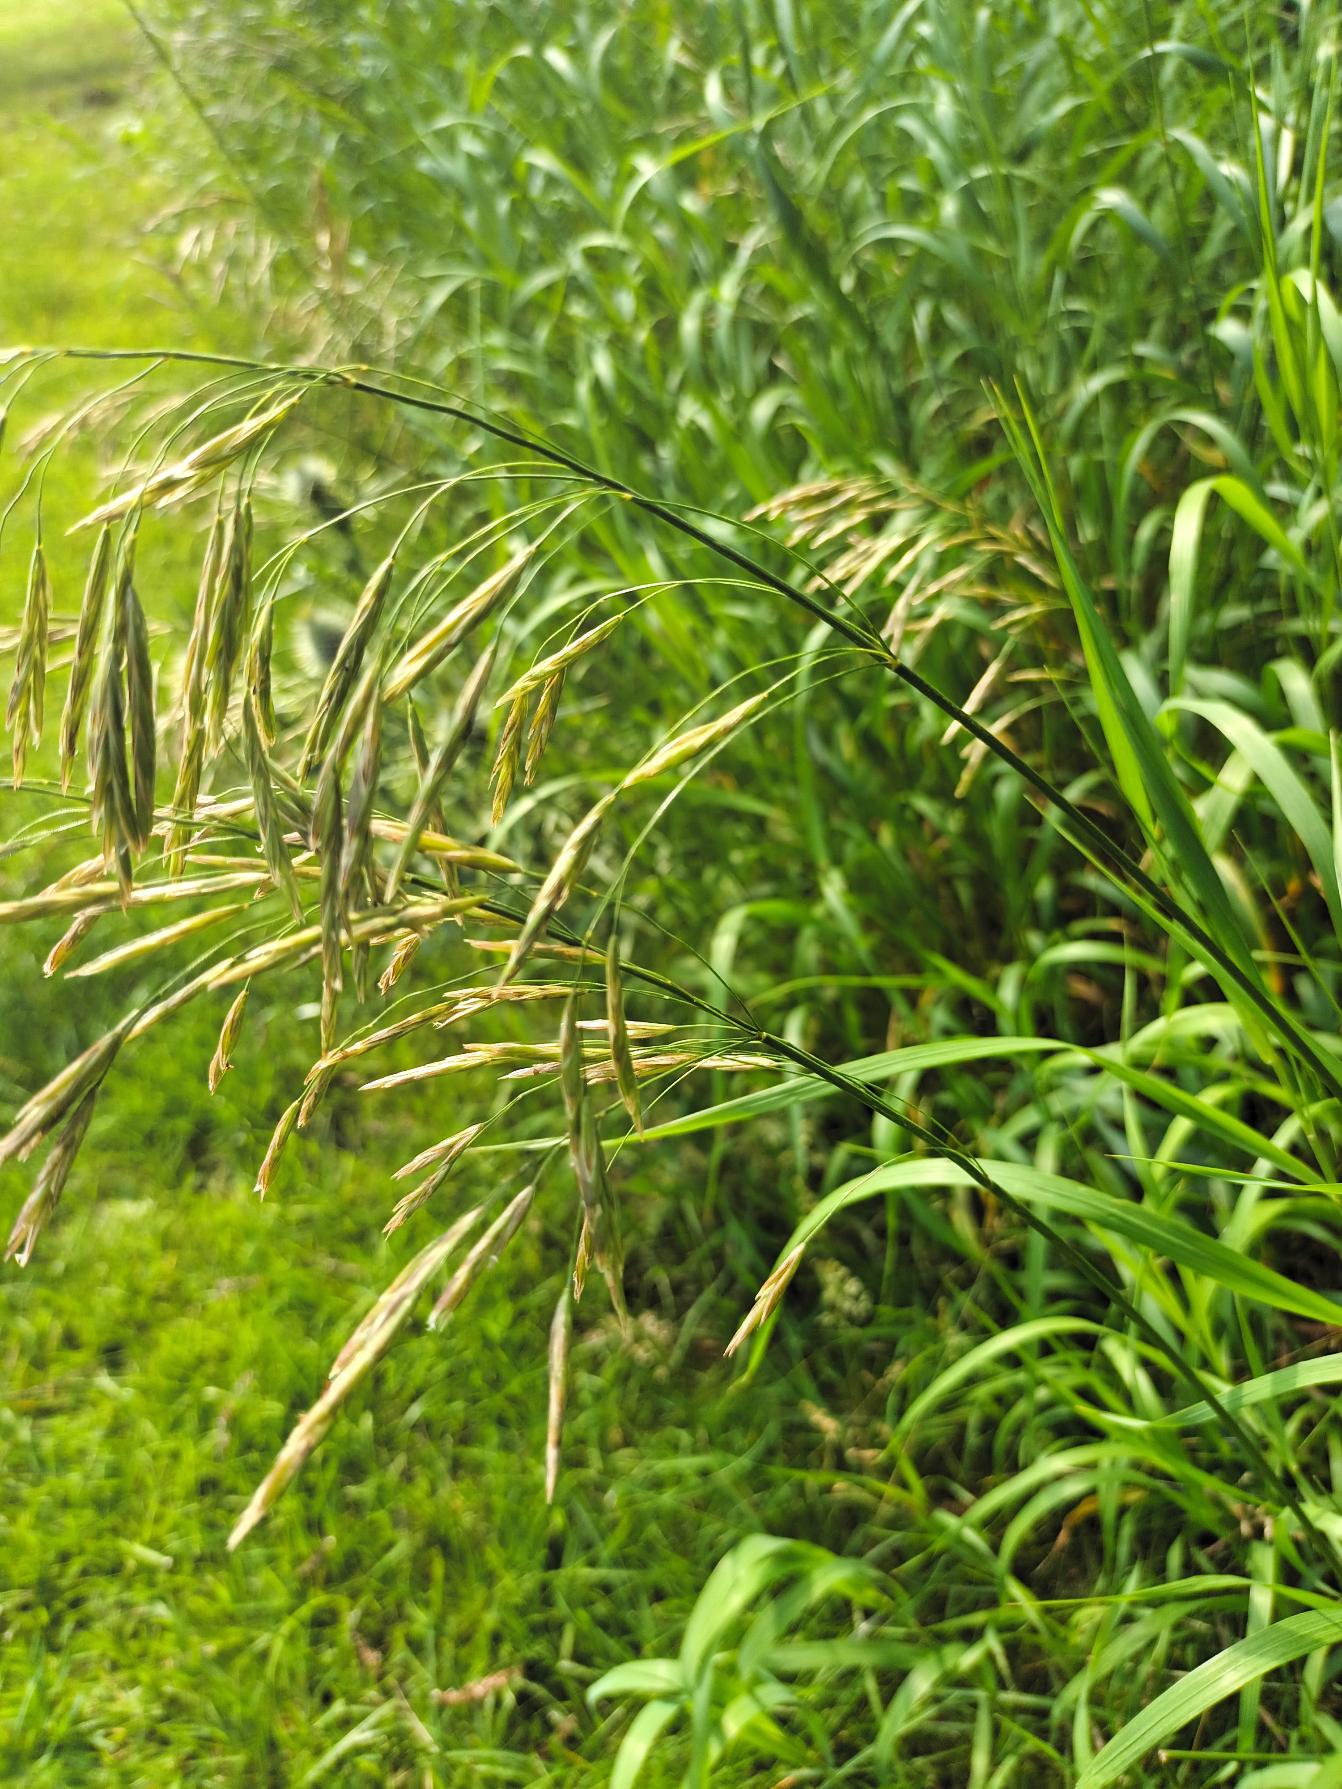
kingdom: Plantae
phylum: Tracheophyta
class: Liliopsida
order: Poales
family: Poaceae
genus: Bromus
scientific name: Bromus inermis
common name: Stakløs hejre
